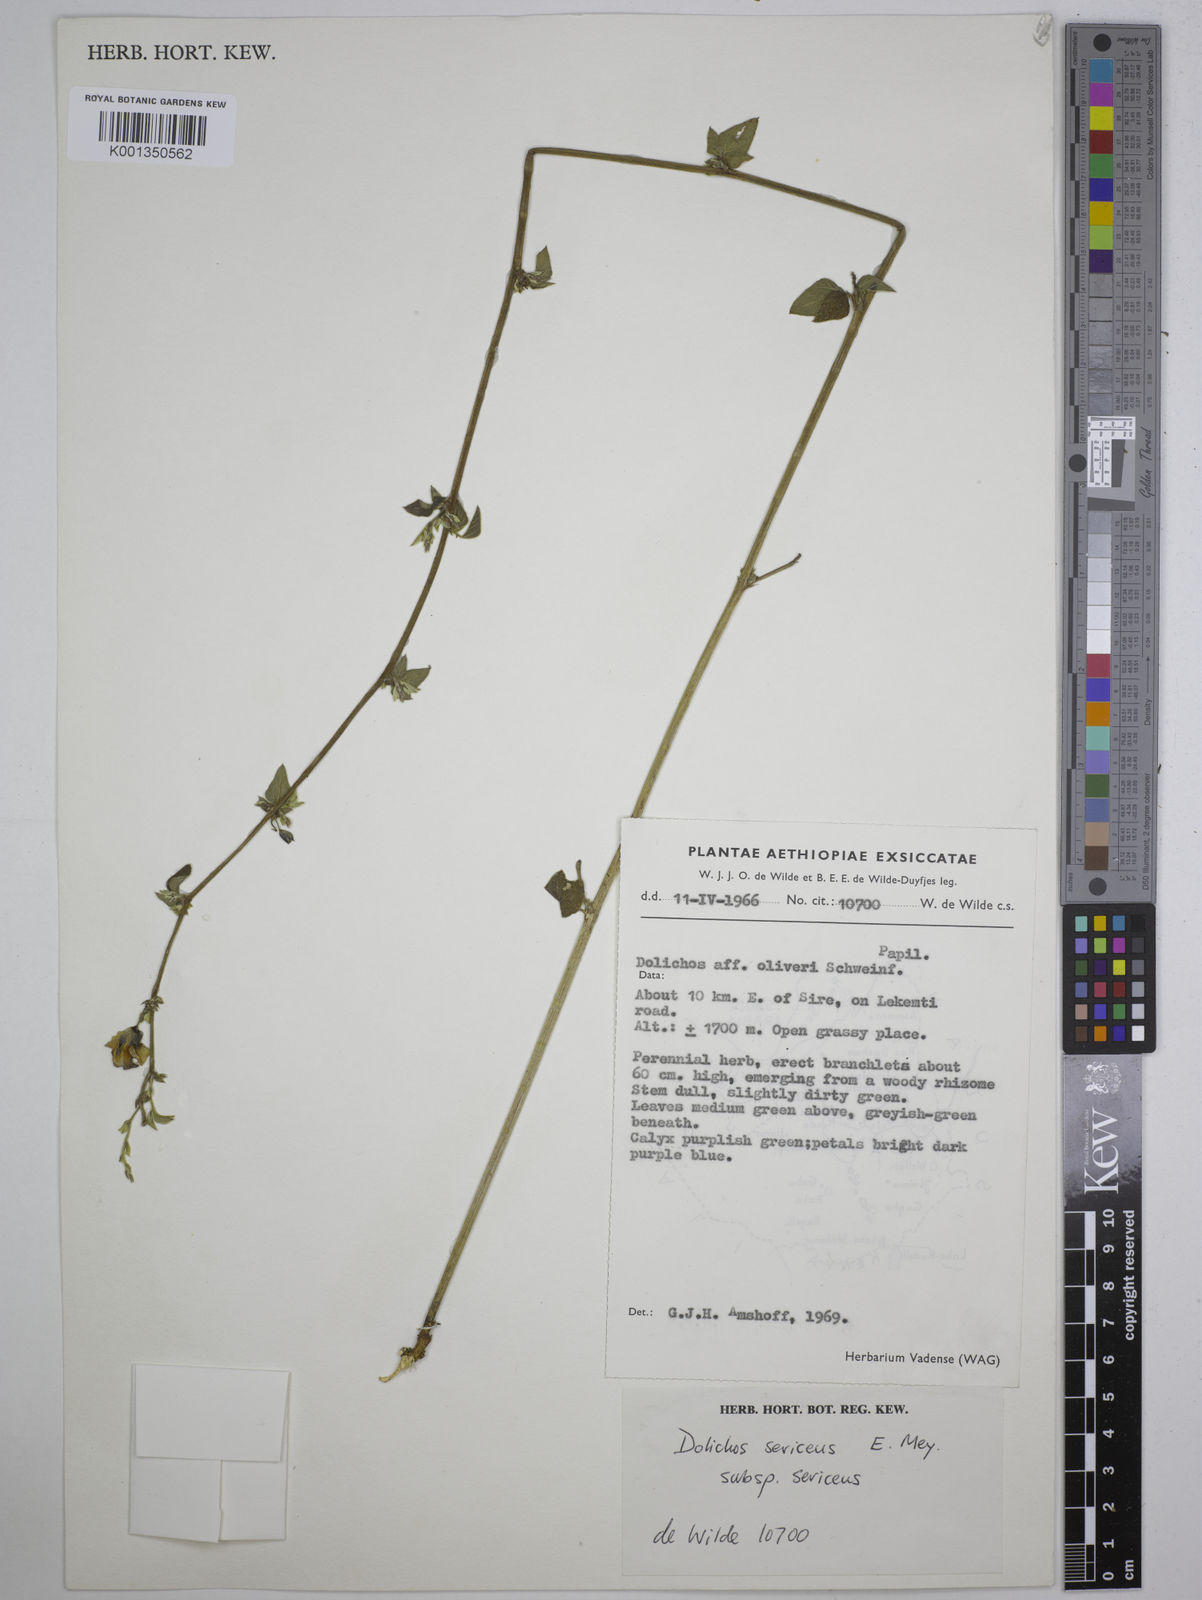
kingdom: Plantae
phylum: Tracheophyta
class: Magnoliopsida
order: Fabales
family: Fabaceae
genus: Dolichos
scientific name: Dolichos
